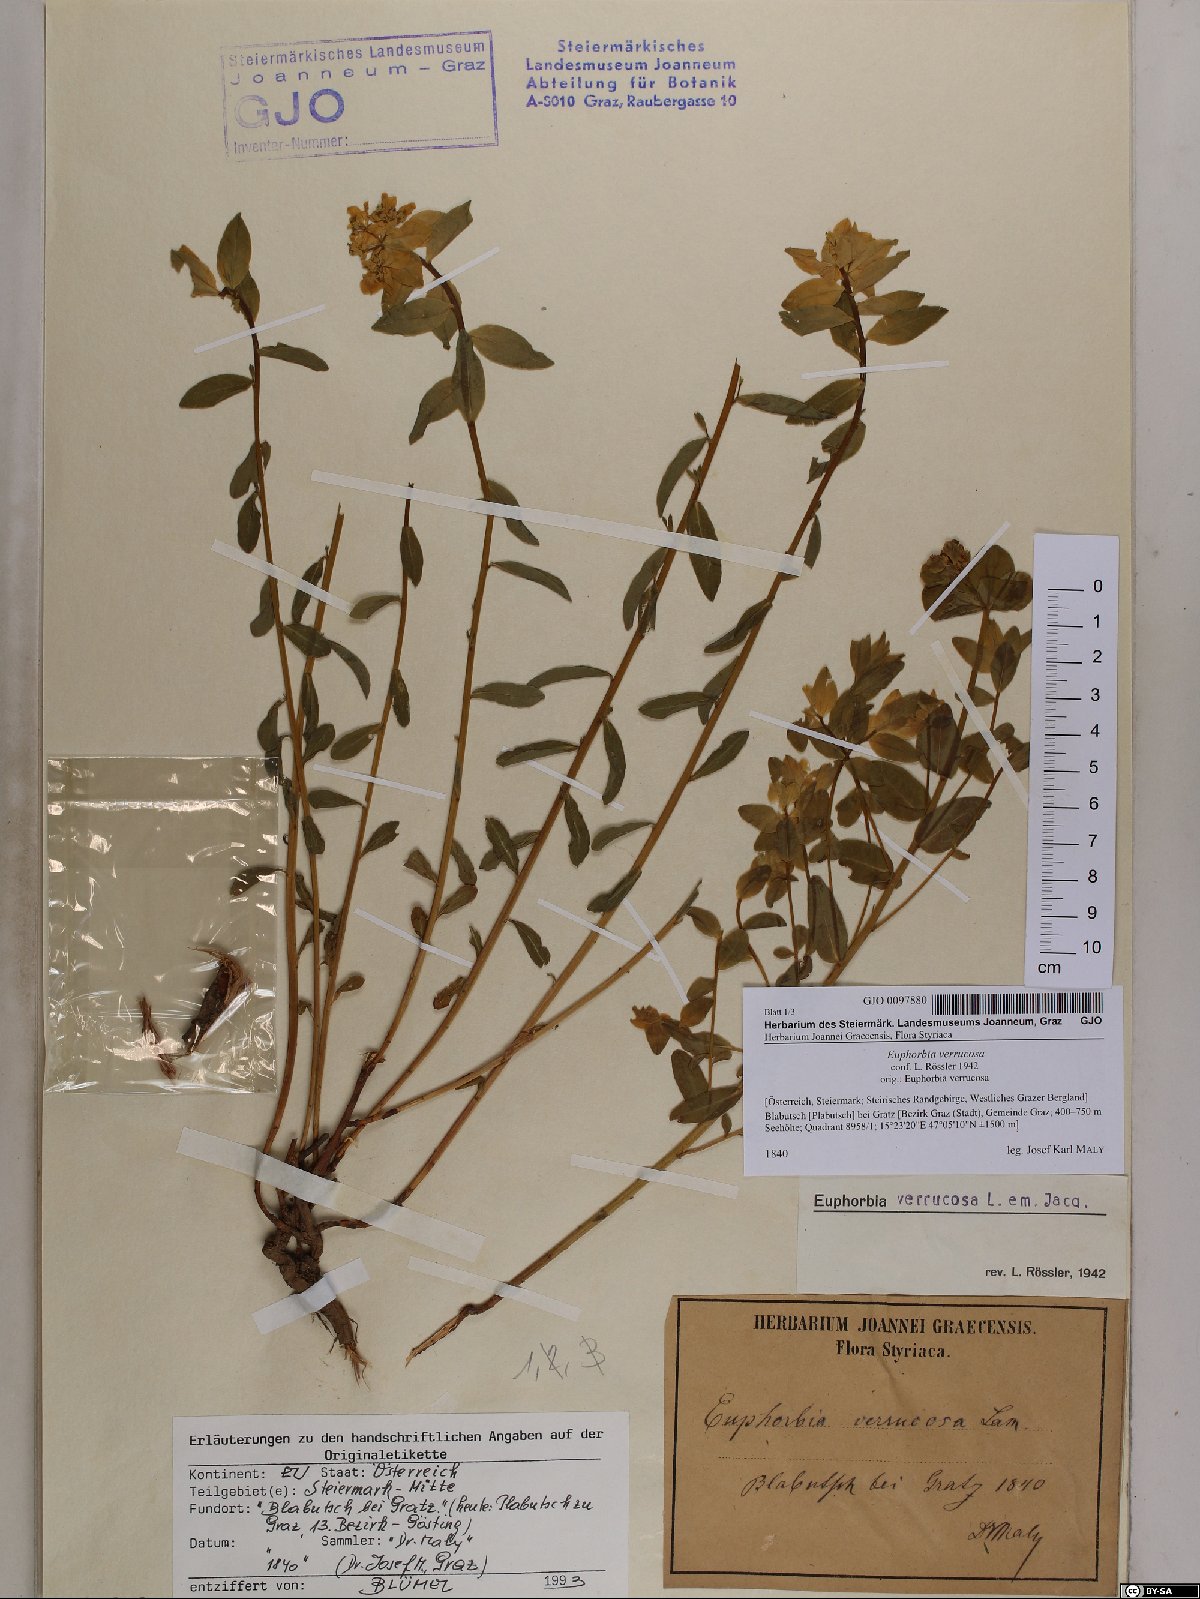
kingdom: Plantae
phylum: Tracheophyta
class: Magnoliopsida
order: Malpighiales
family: Euphorbiaceae
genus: Euphorbia
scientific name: Euphorbia verrucosa
